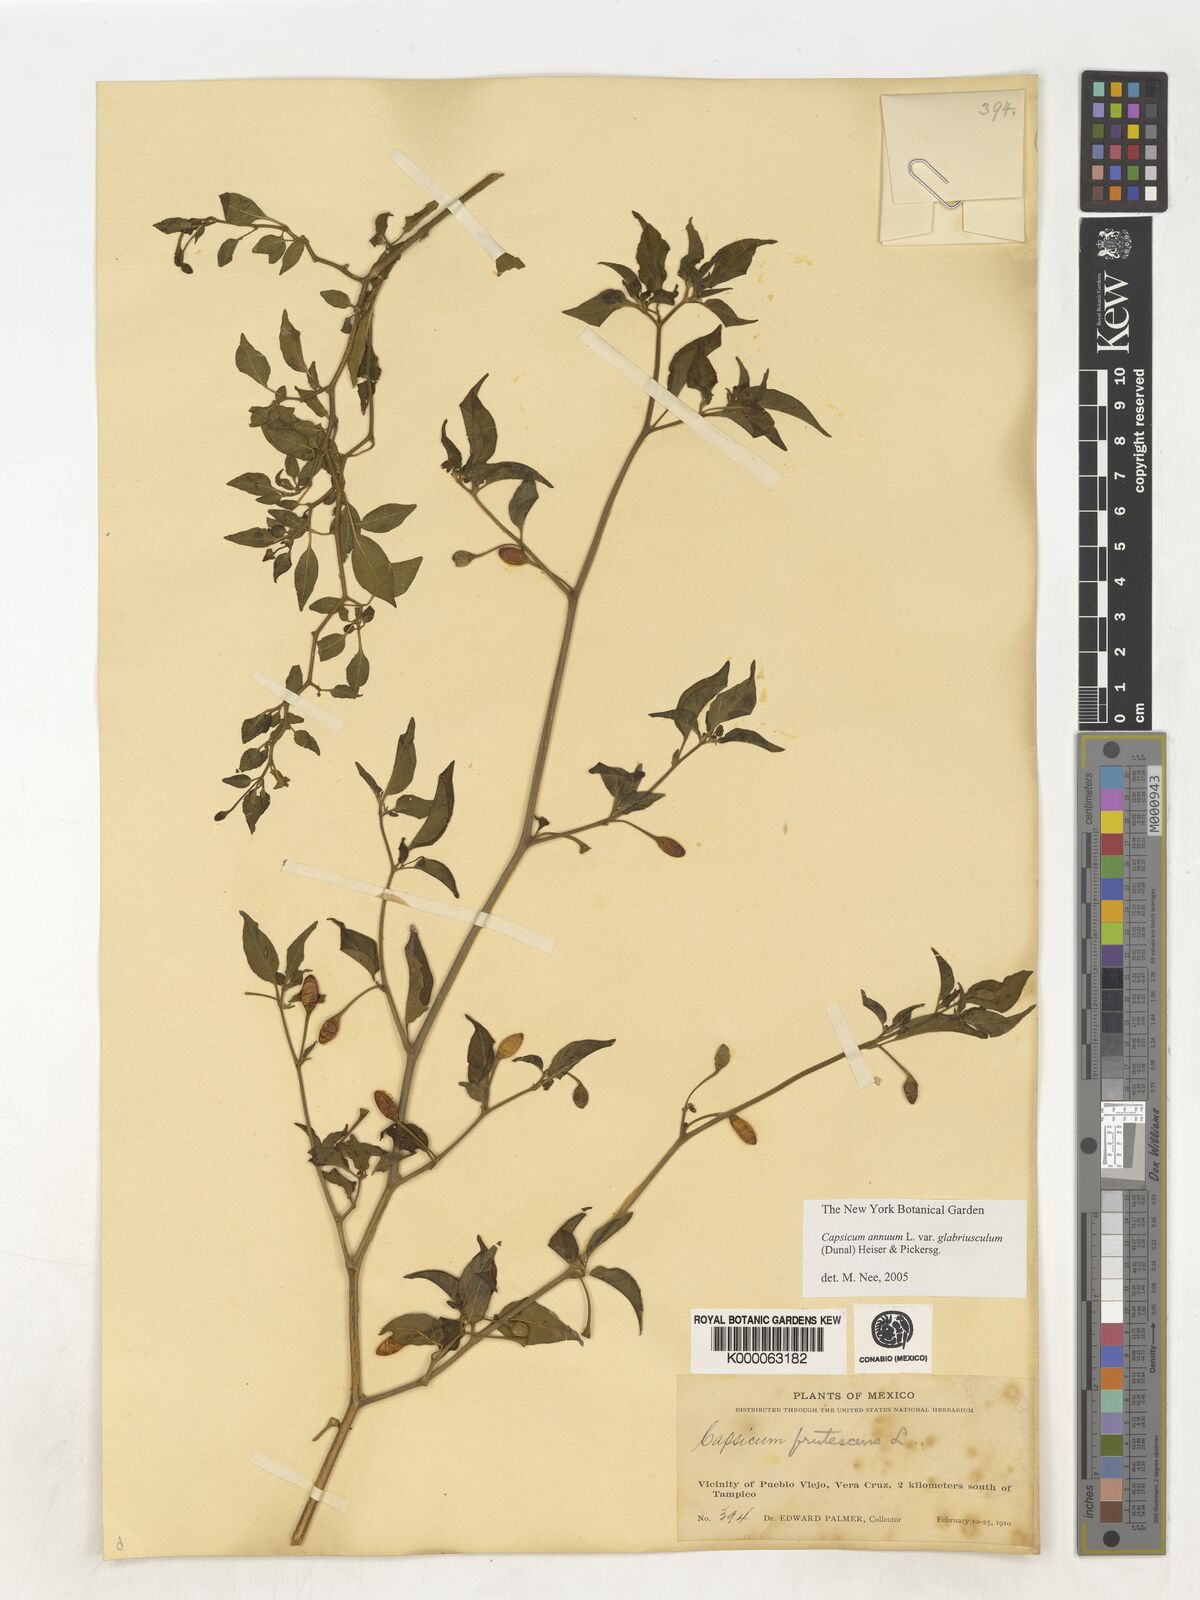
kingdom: Plantae
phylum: Tracheophyta
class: Magnoliopsida
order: Solanales
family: Solanaceae
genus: Capsicum
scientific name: Capsicum frutescens
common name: Bird pepper
